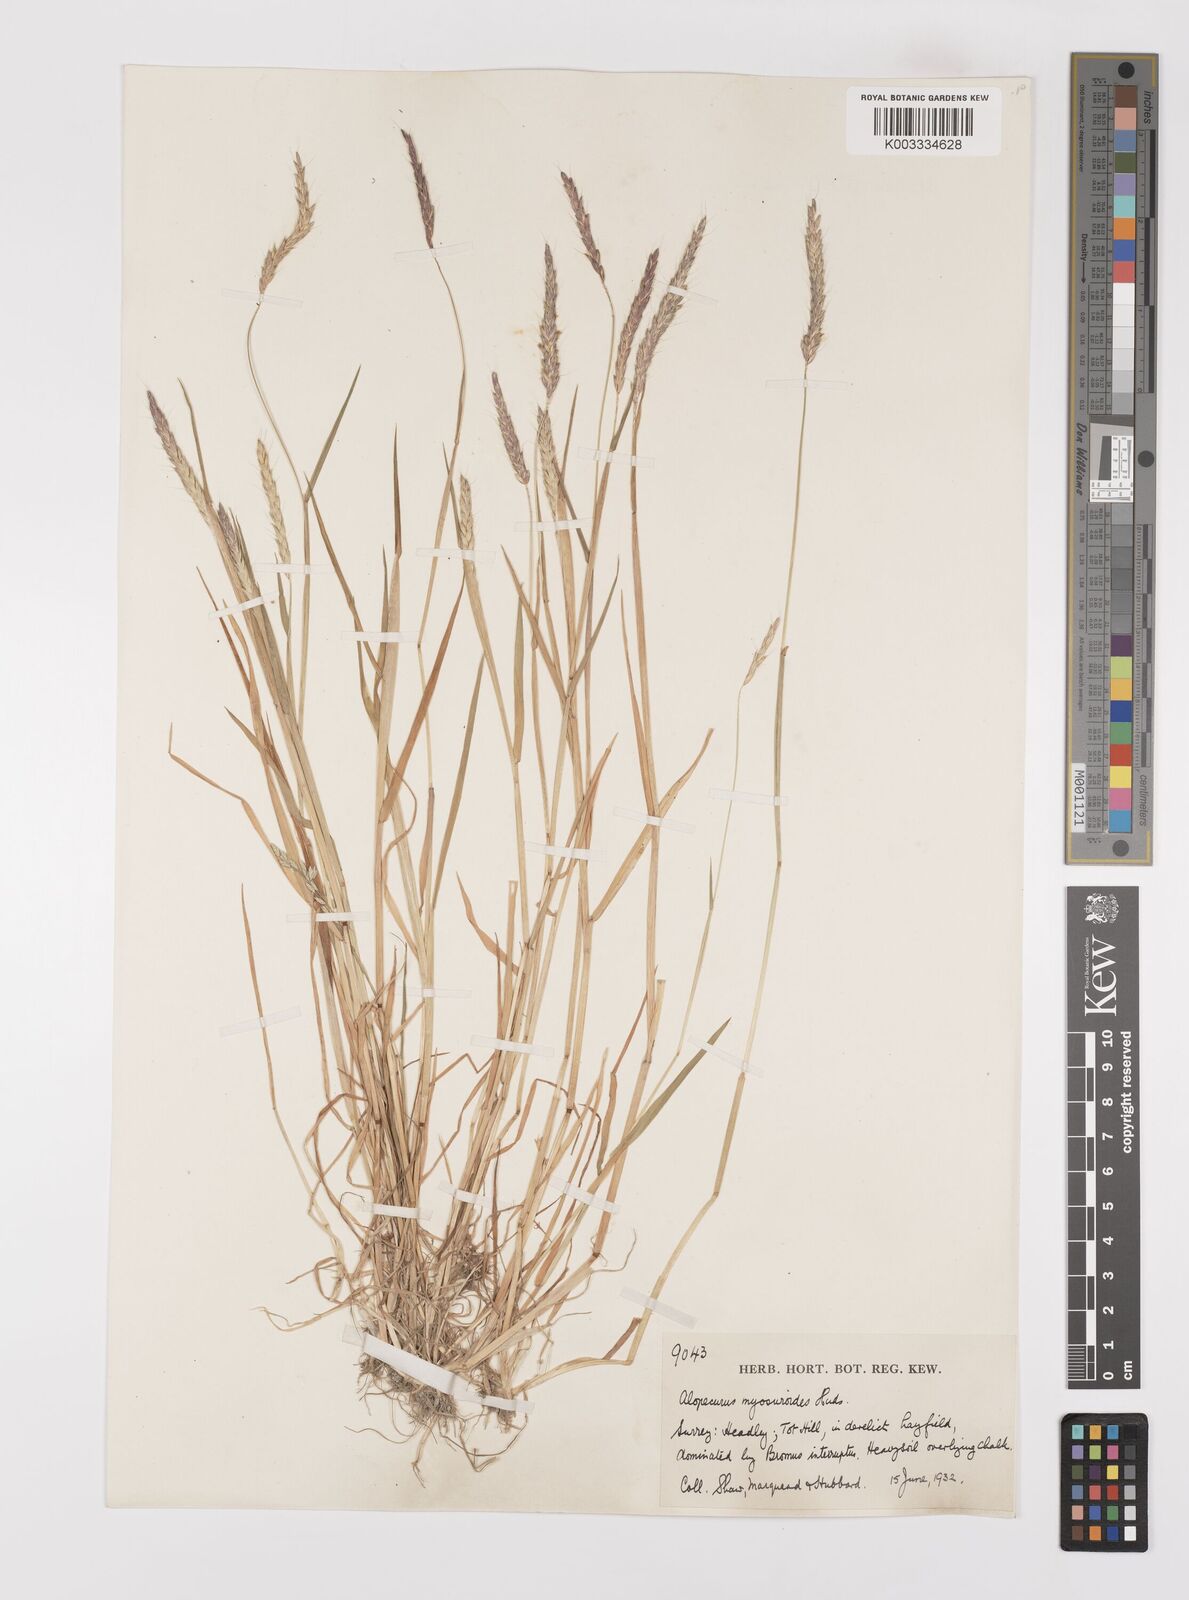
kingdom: Plantae
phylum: Tracheophyta
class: Liliopsida
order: Poales
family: Poaceae
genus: Alopecurus
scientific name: Alopecurus myosuroides
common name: Black-grass
